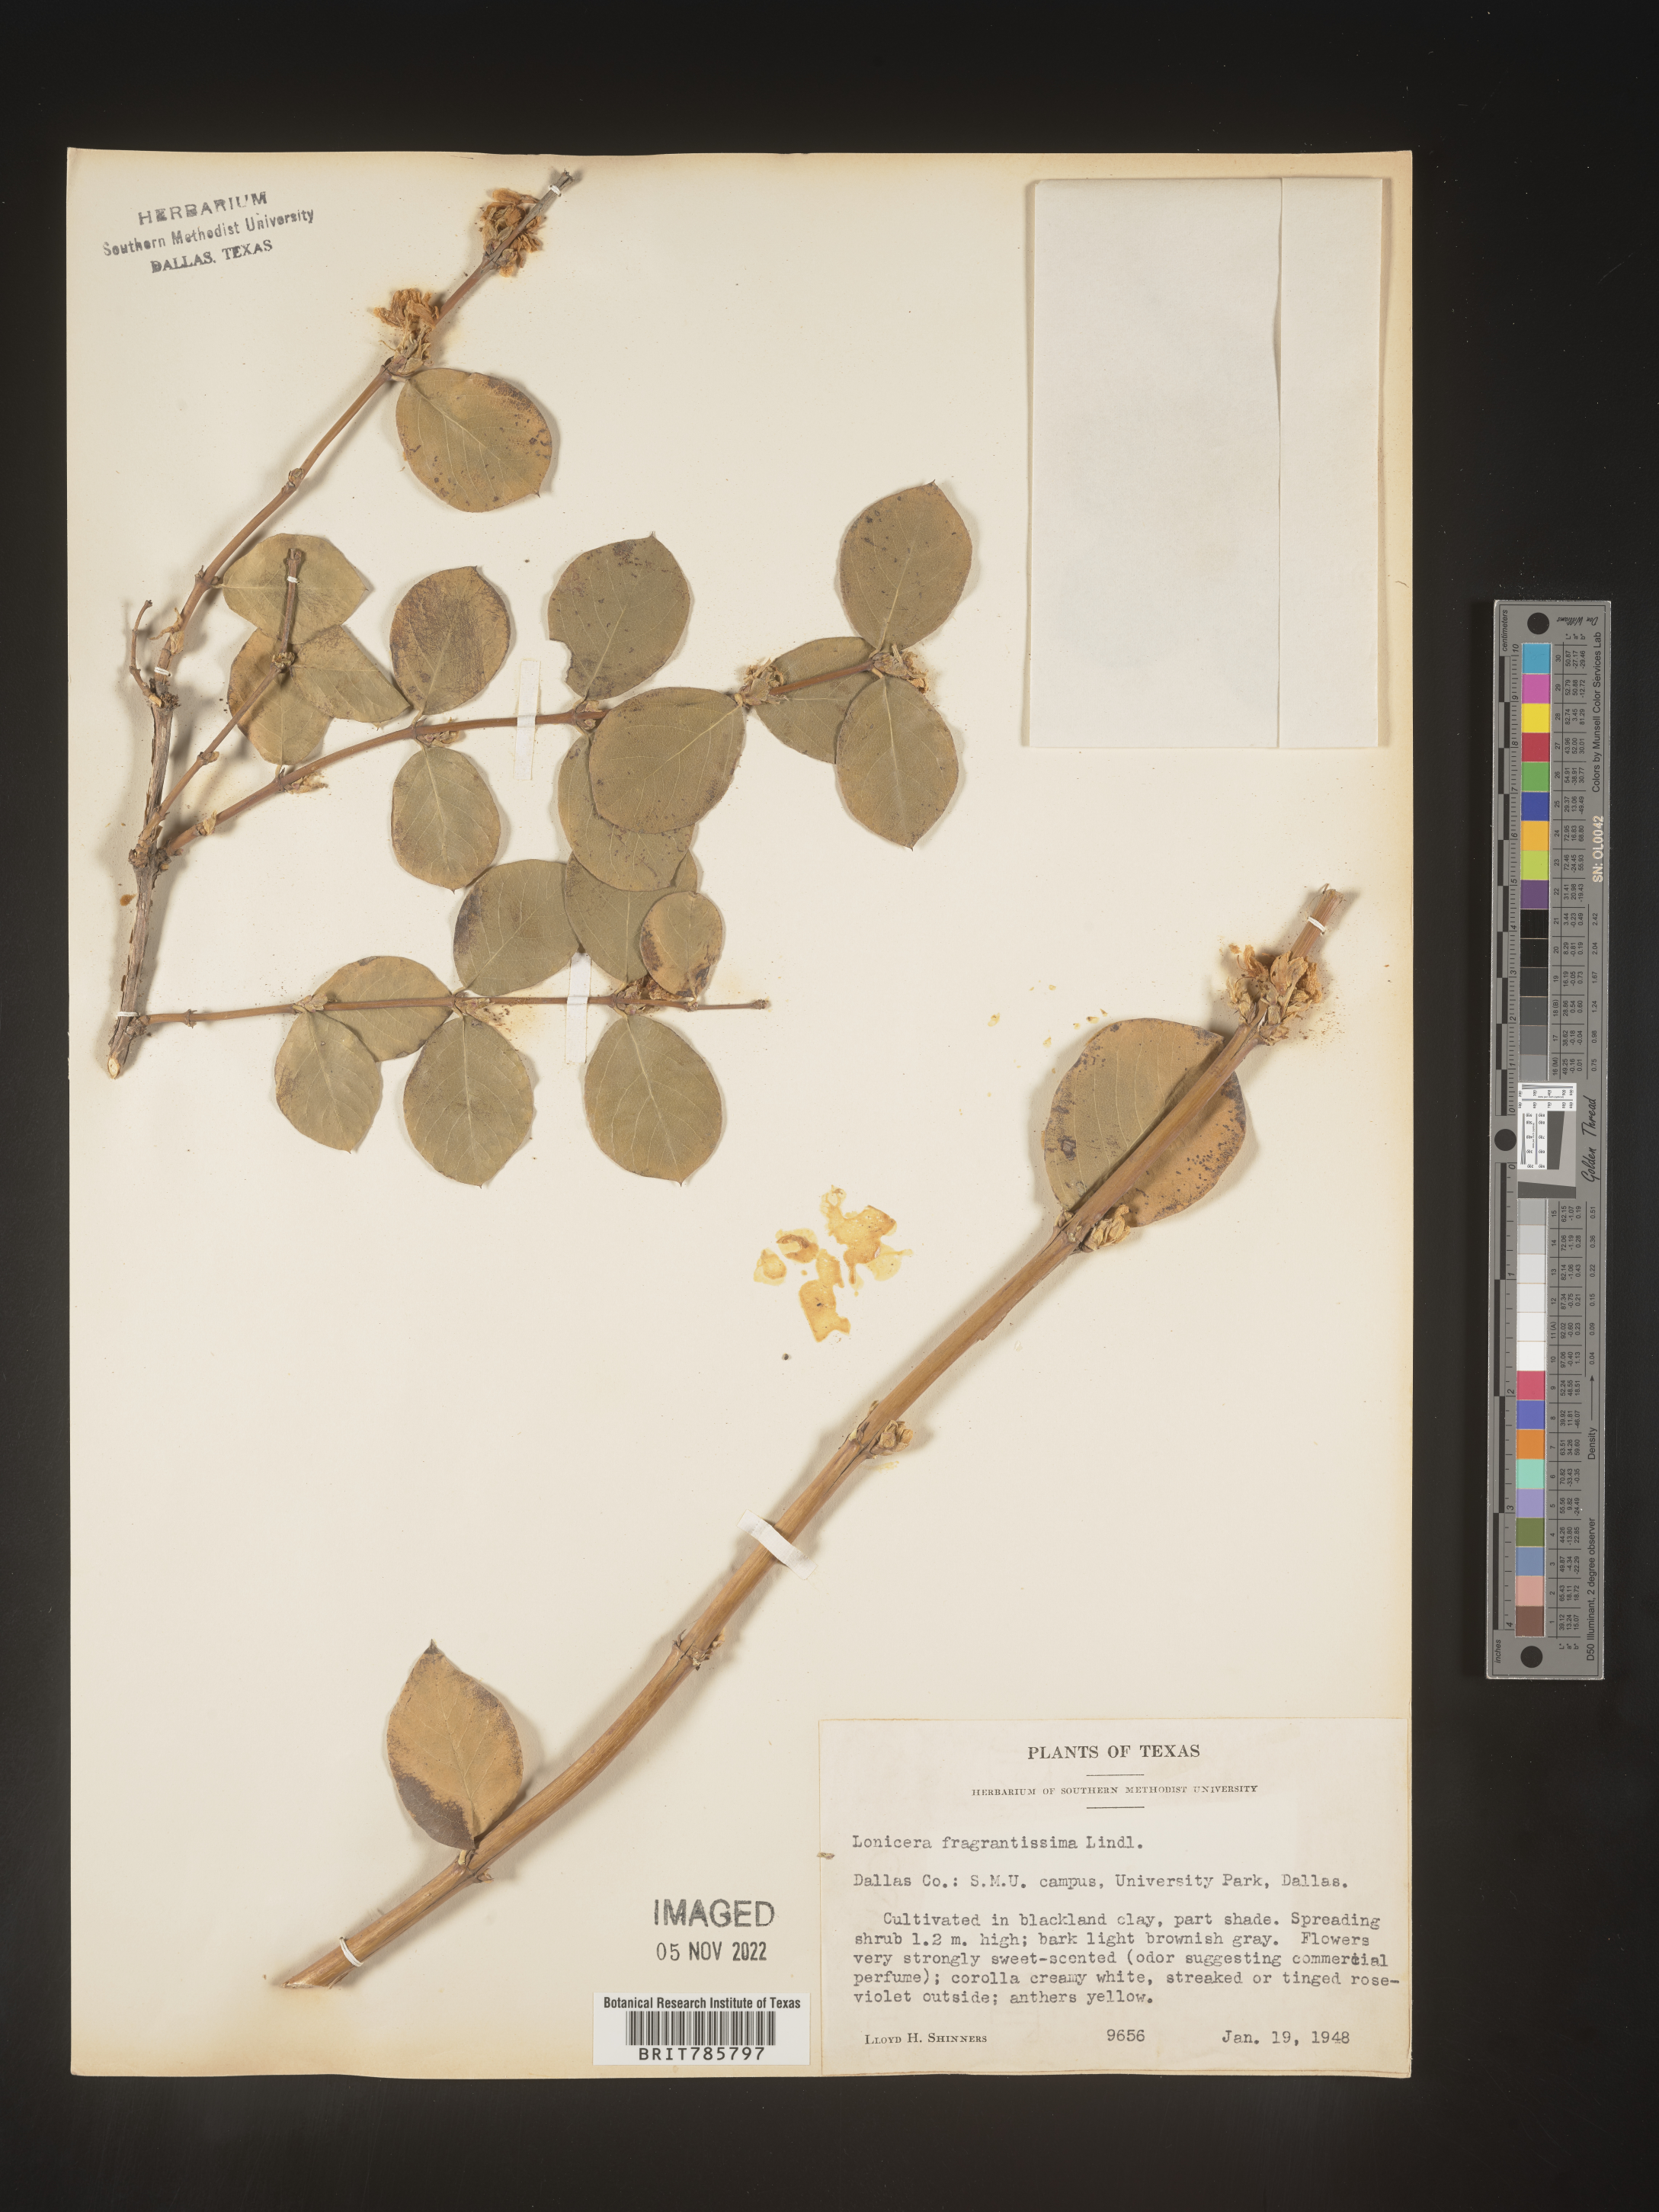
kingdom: Plantae
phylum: Tracheophyta
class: Magnoliopsida
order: Dipsacales
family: Caprifoliaceae
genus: Lonicera
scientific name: Lonicera
